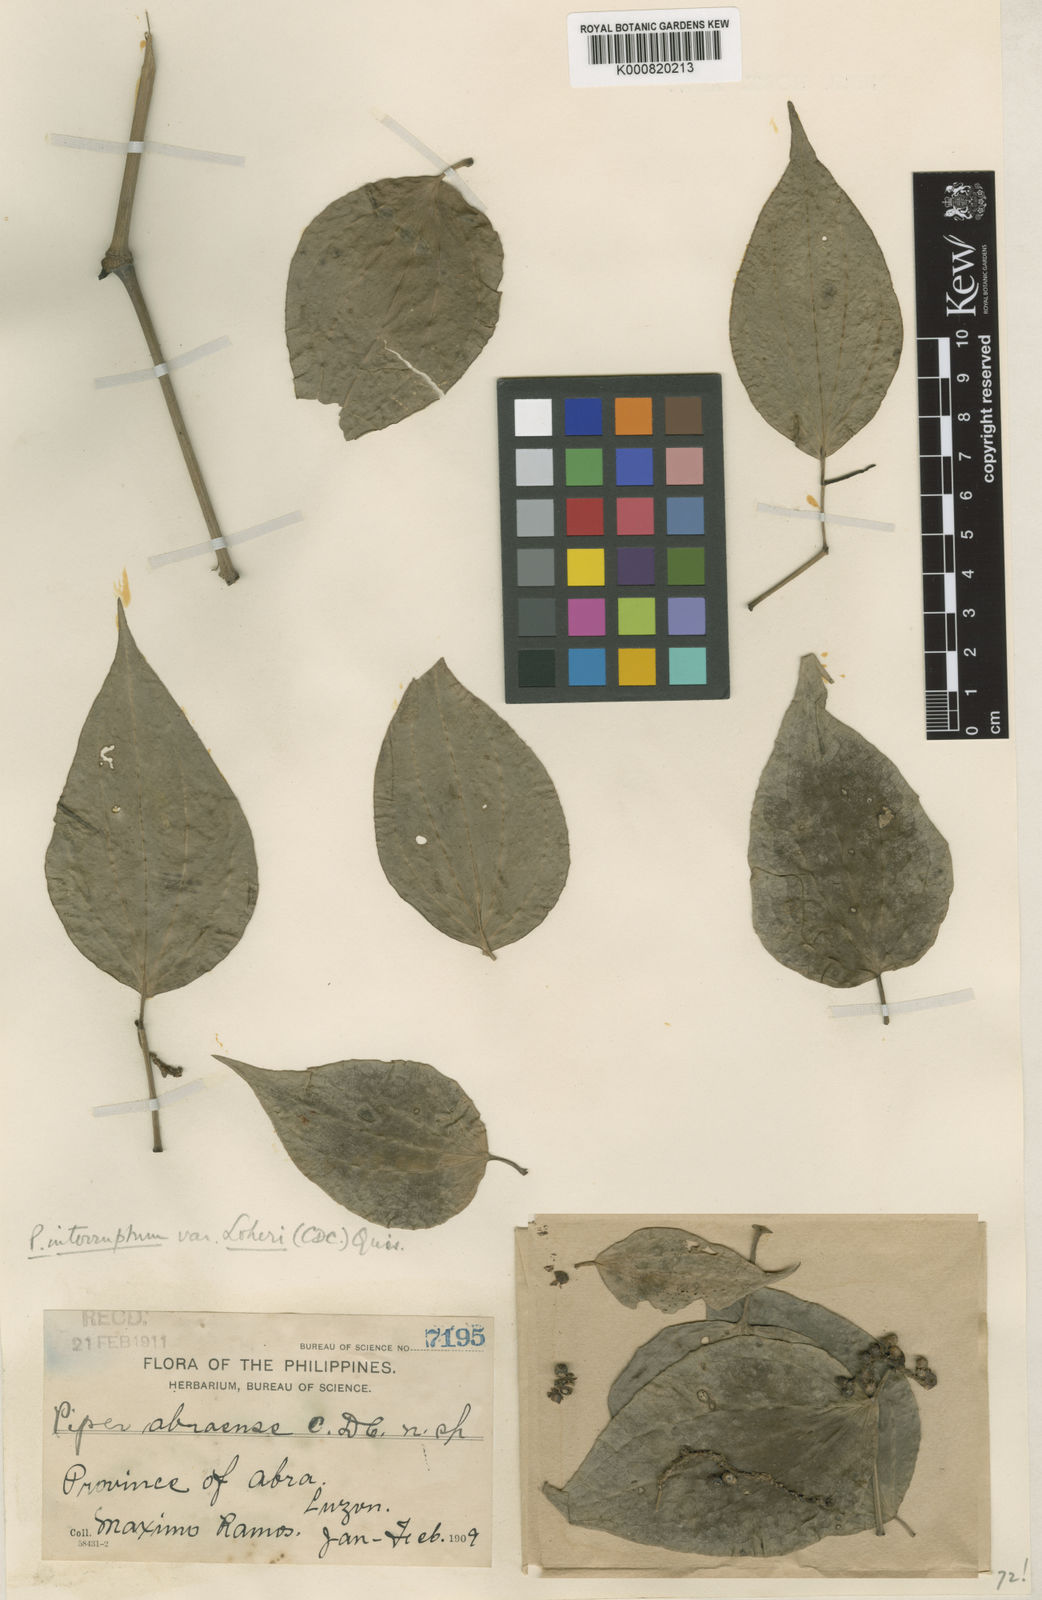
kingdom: Plantae
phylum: Tracheophyta
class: Magnoliopsida
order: Piperales
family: Piperaceae
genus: Piper
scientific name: Piper interruptum
